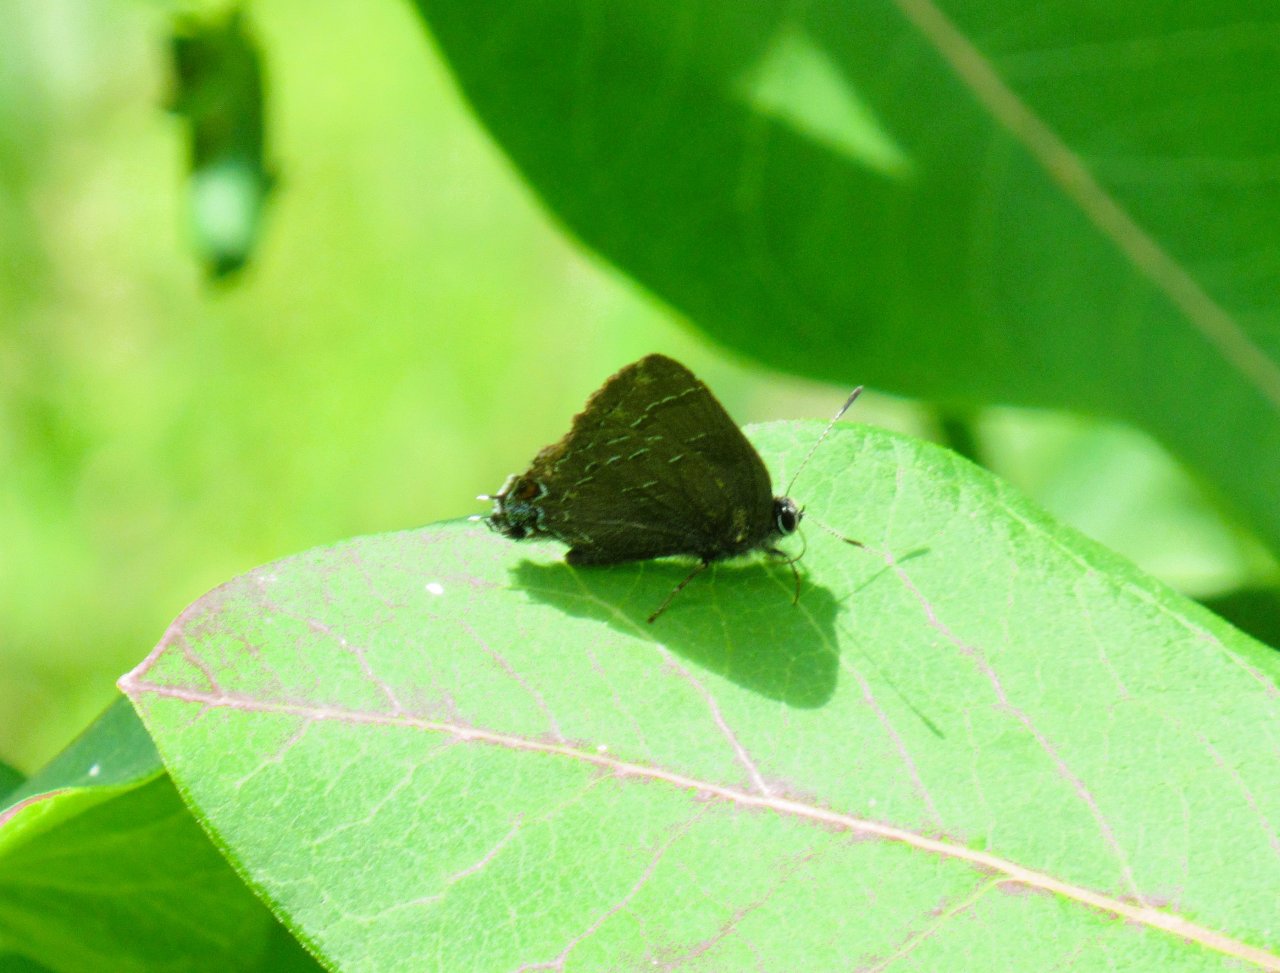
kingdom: Animalia
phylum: Arthropoda
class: Insecta
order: Lepidoptera
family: Lycaenidae
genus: Satyrium
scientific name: Satyrium calanus
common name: Banded Hairstreak
